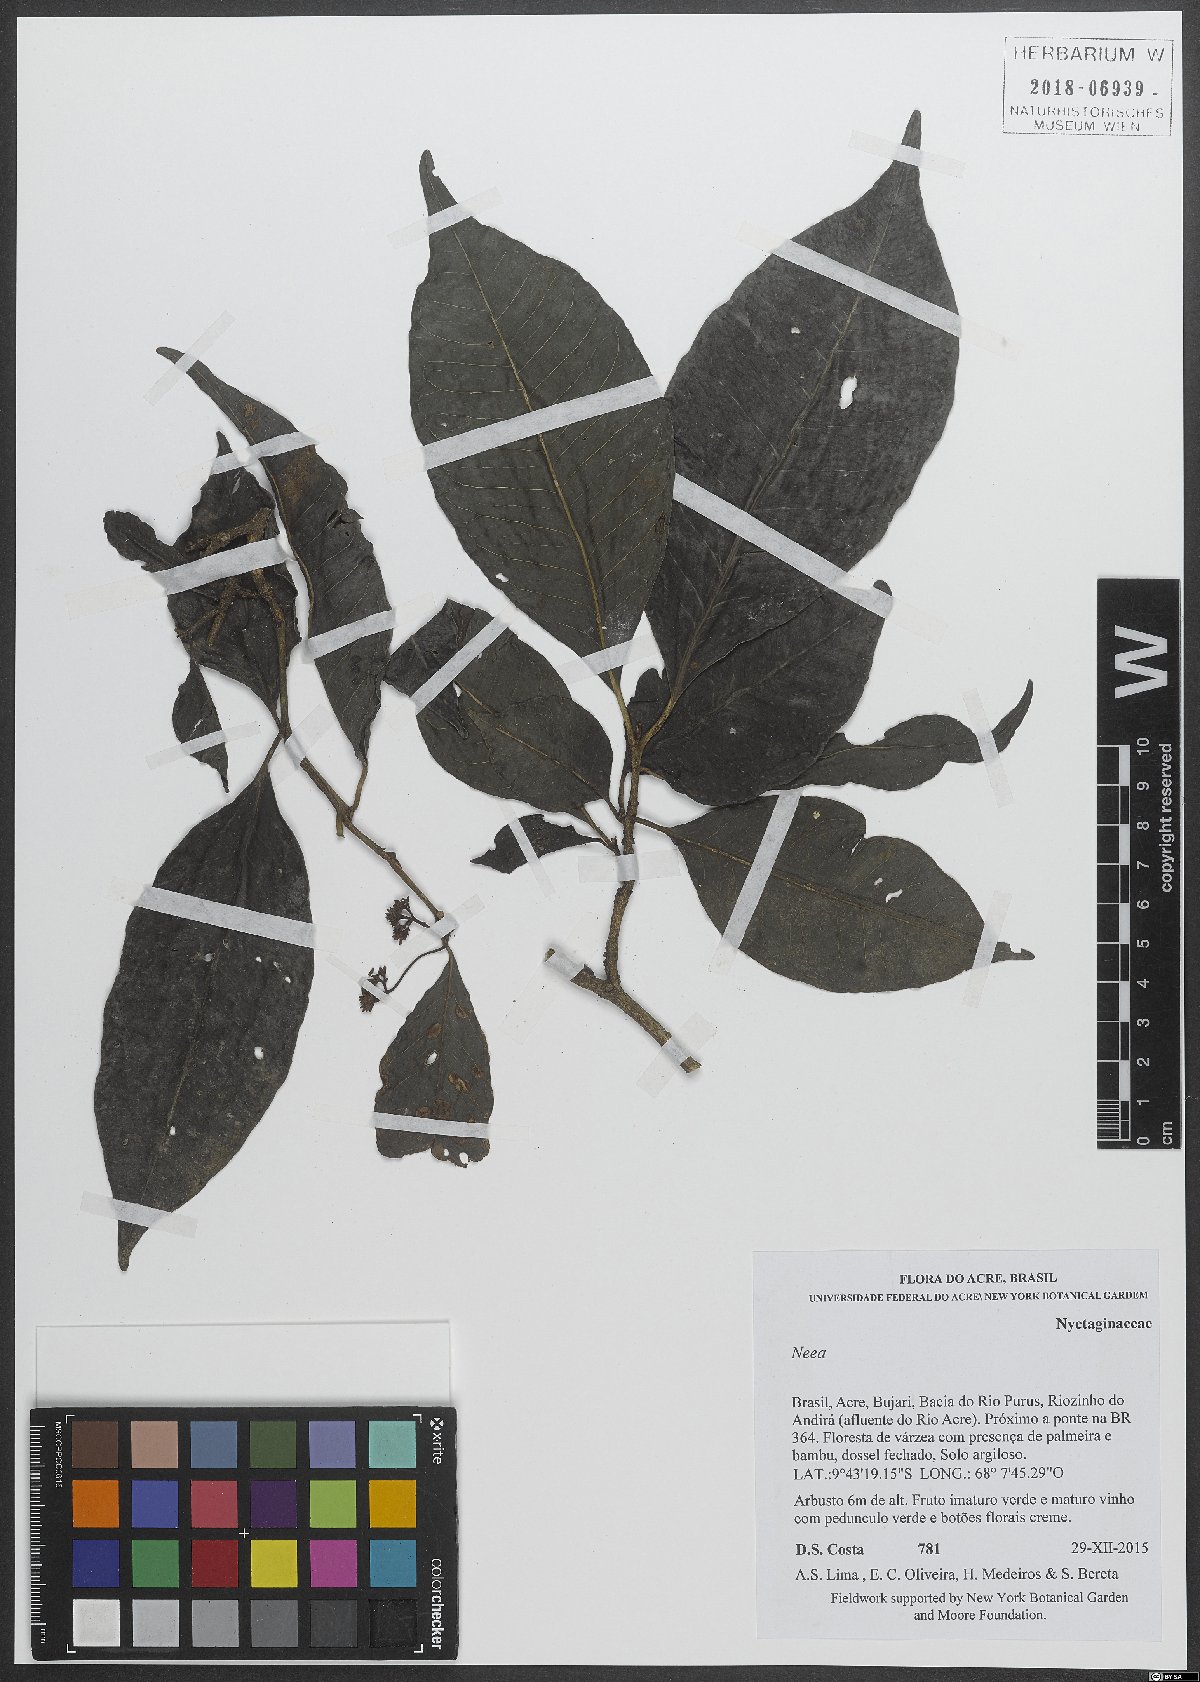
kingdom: Plantae
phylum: Tracheophyta
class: Magnoliopsida
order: Caryophyllales
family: Nyctaginaceae
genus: Neea
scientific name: Neea
